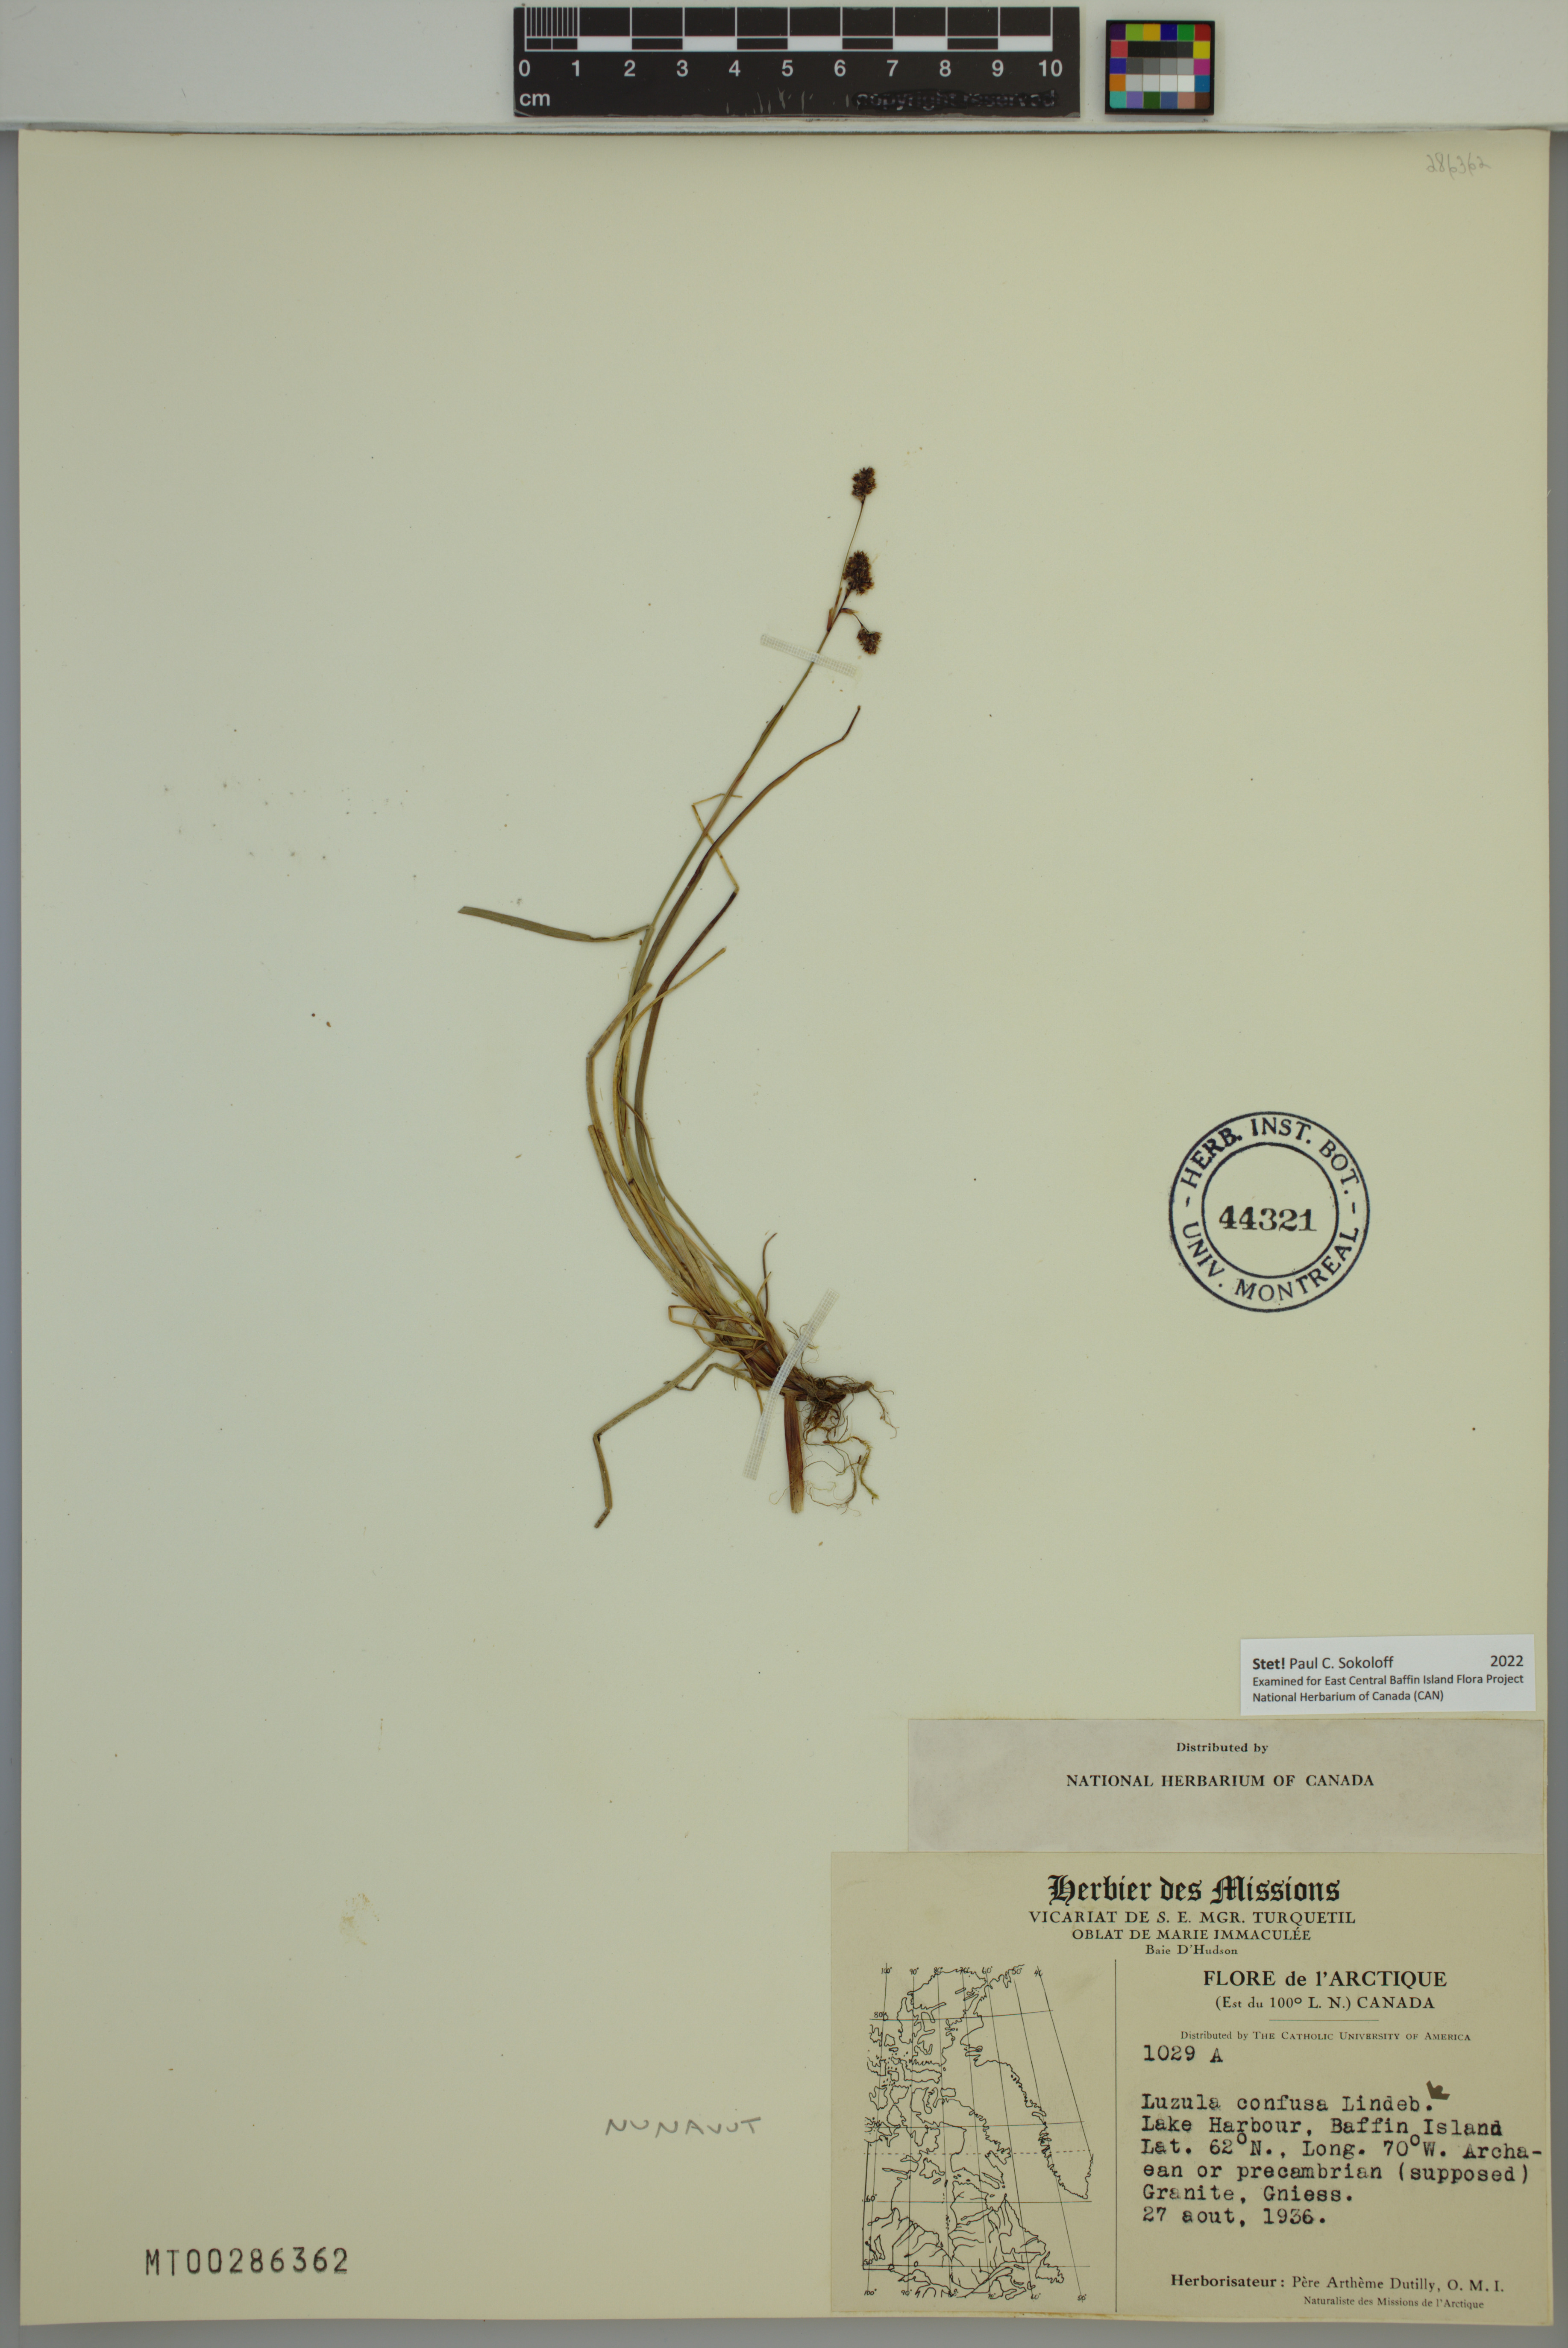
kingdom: Plantae
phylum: Tracheophyta
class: Liliopsida
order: Poales
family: Juncaceae
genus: Luzula
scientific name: Luzula confusa
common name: Northern wood rush
